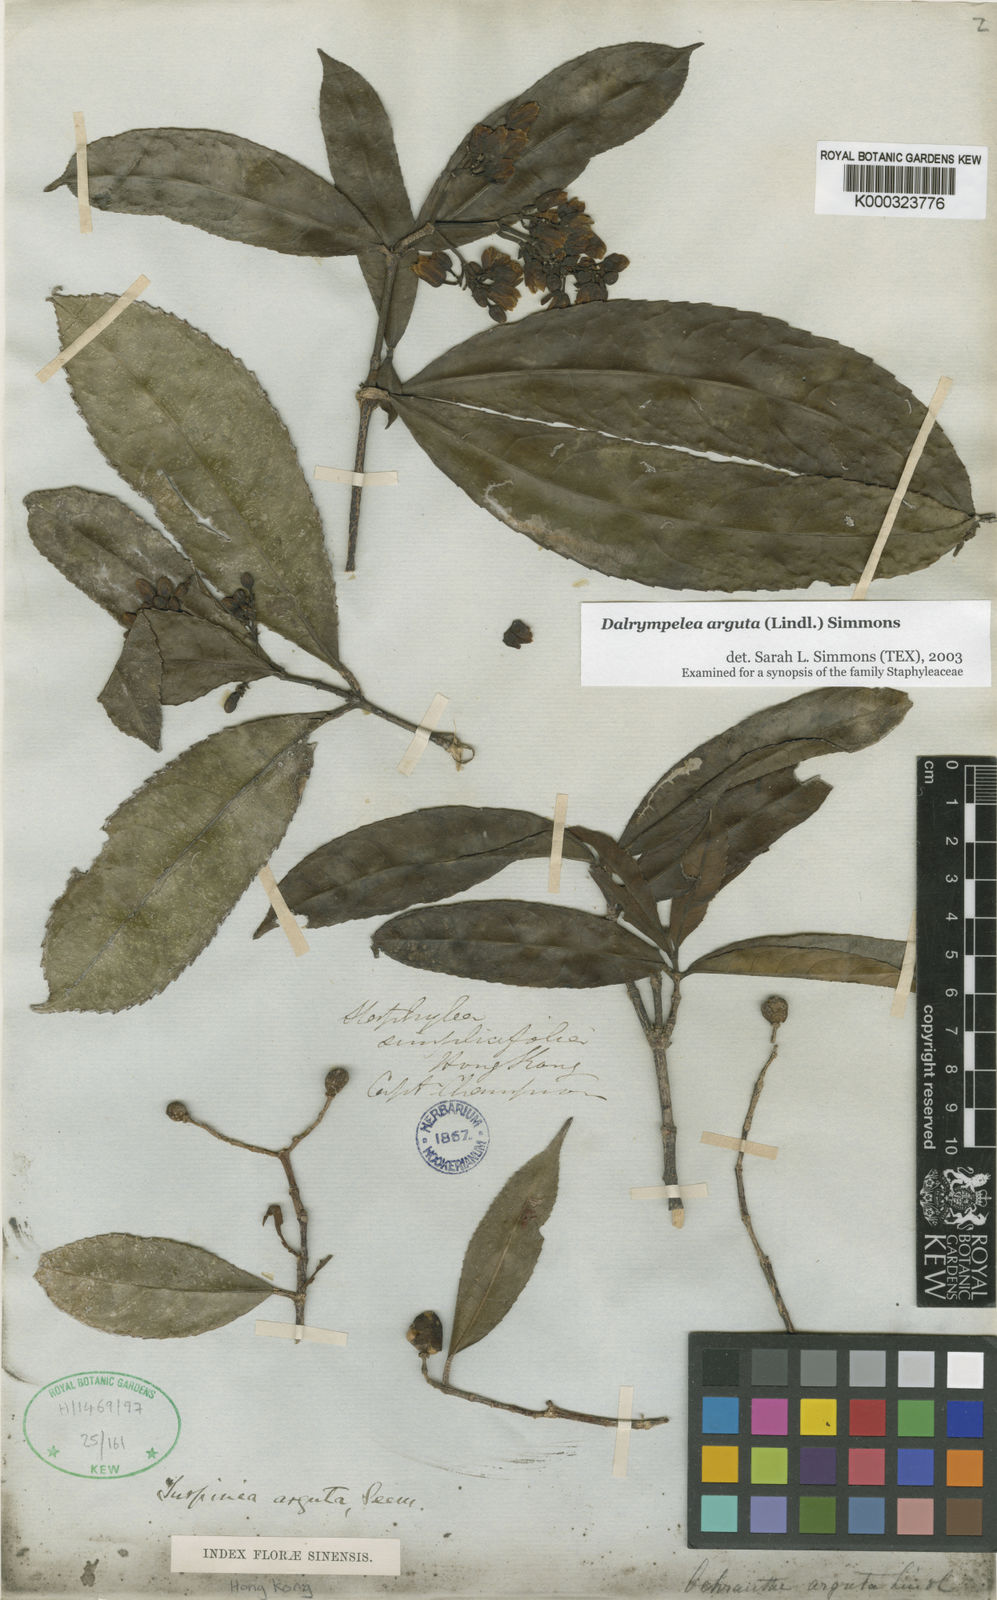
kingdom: Plantae
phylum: Tracheophyta
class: Magnoliopsida
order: Crossosomatales
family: Staphyleaceae
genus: Dalrympelea
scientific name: Dalrympelea
